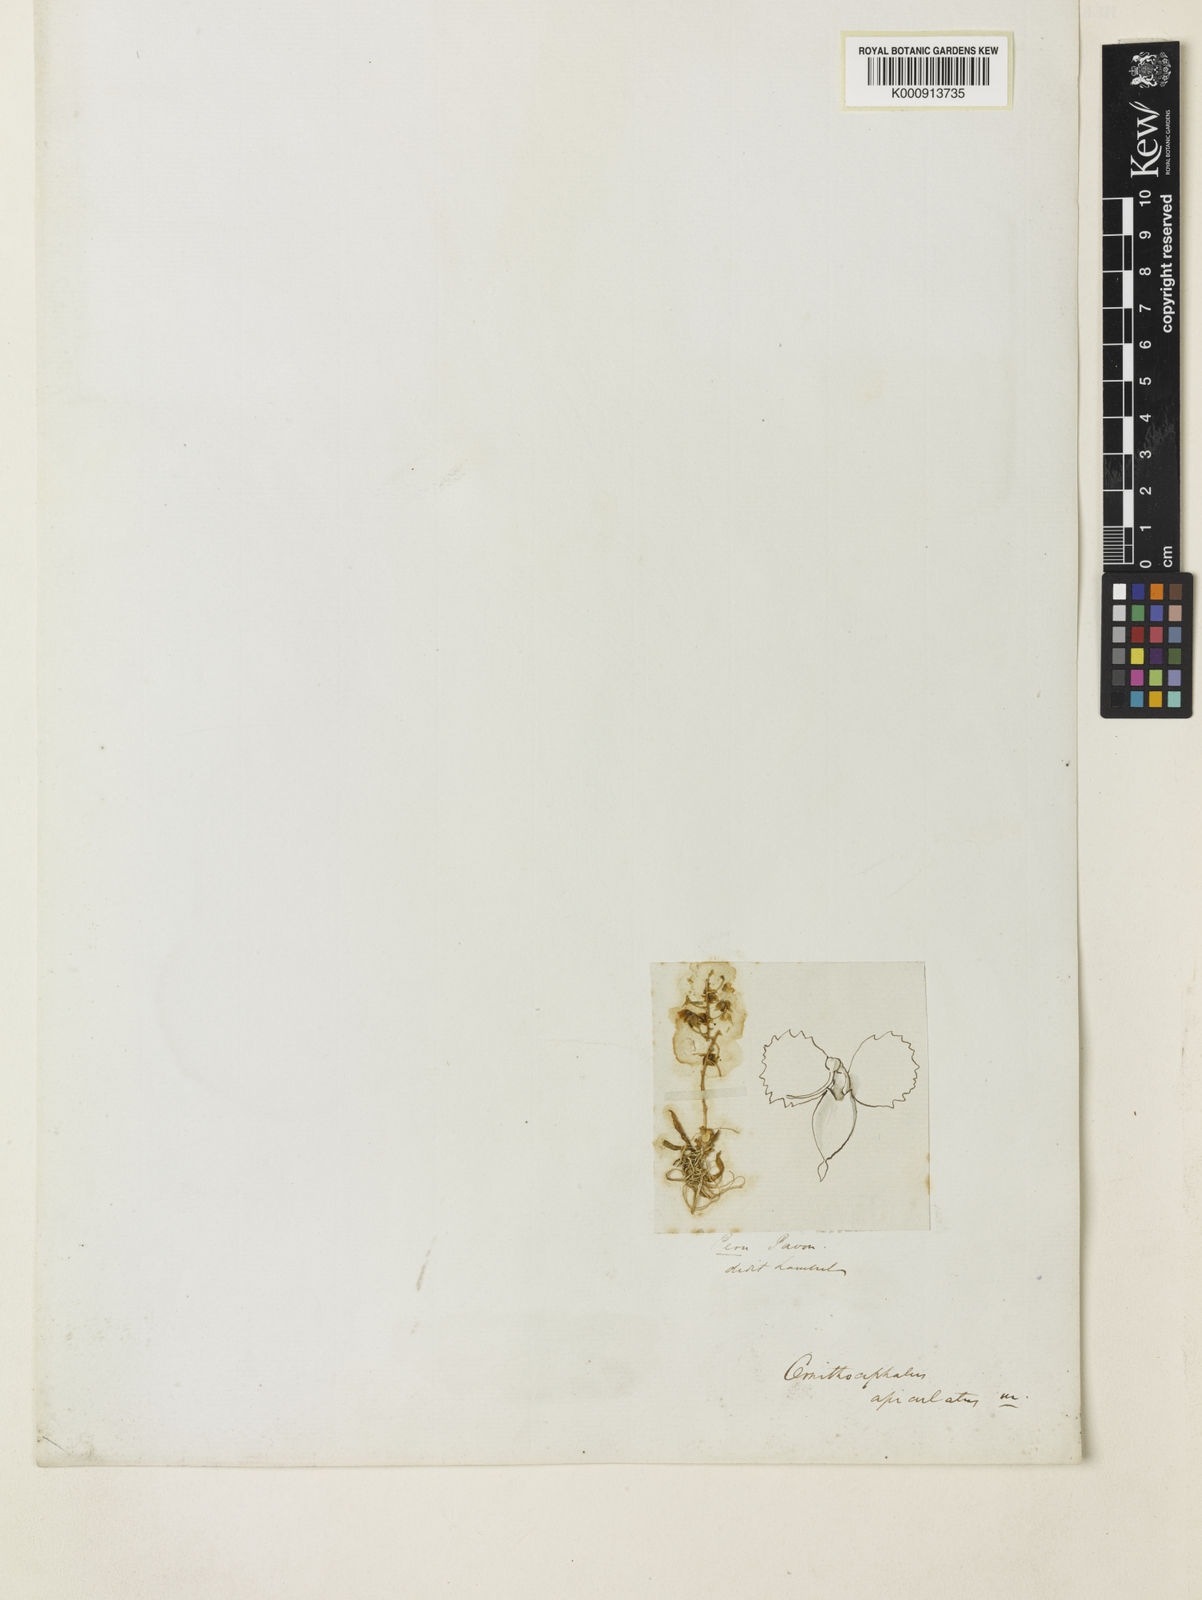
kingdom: Plantae
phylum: Tracheophyta
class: Liliopsida
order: Asparagales
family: Orchidaceae
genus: Zygostates
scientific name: Zygostates apiculata
